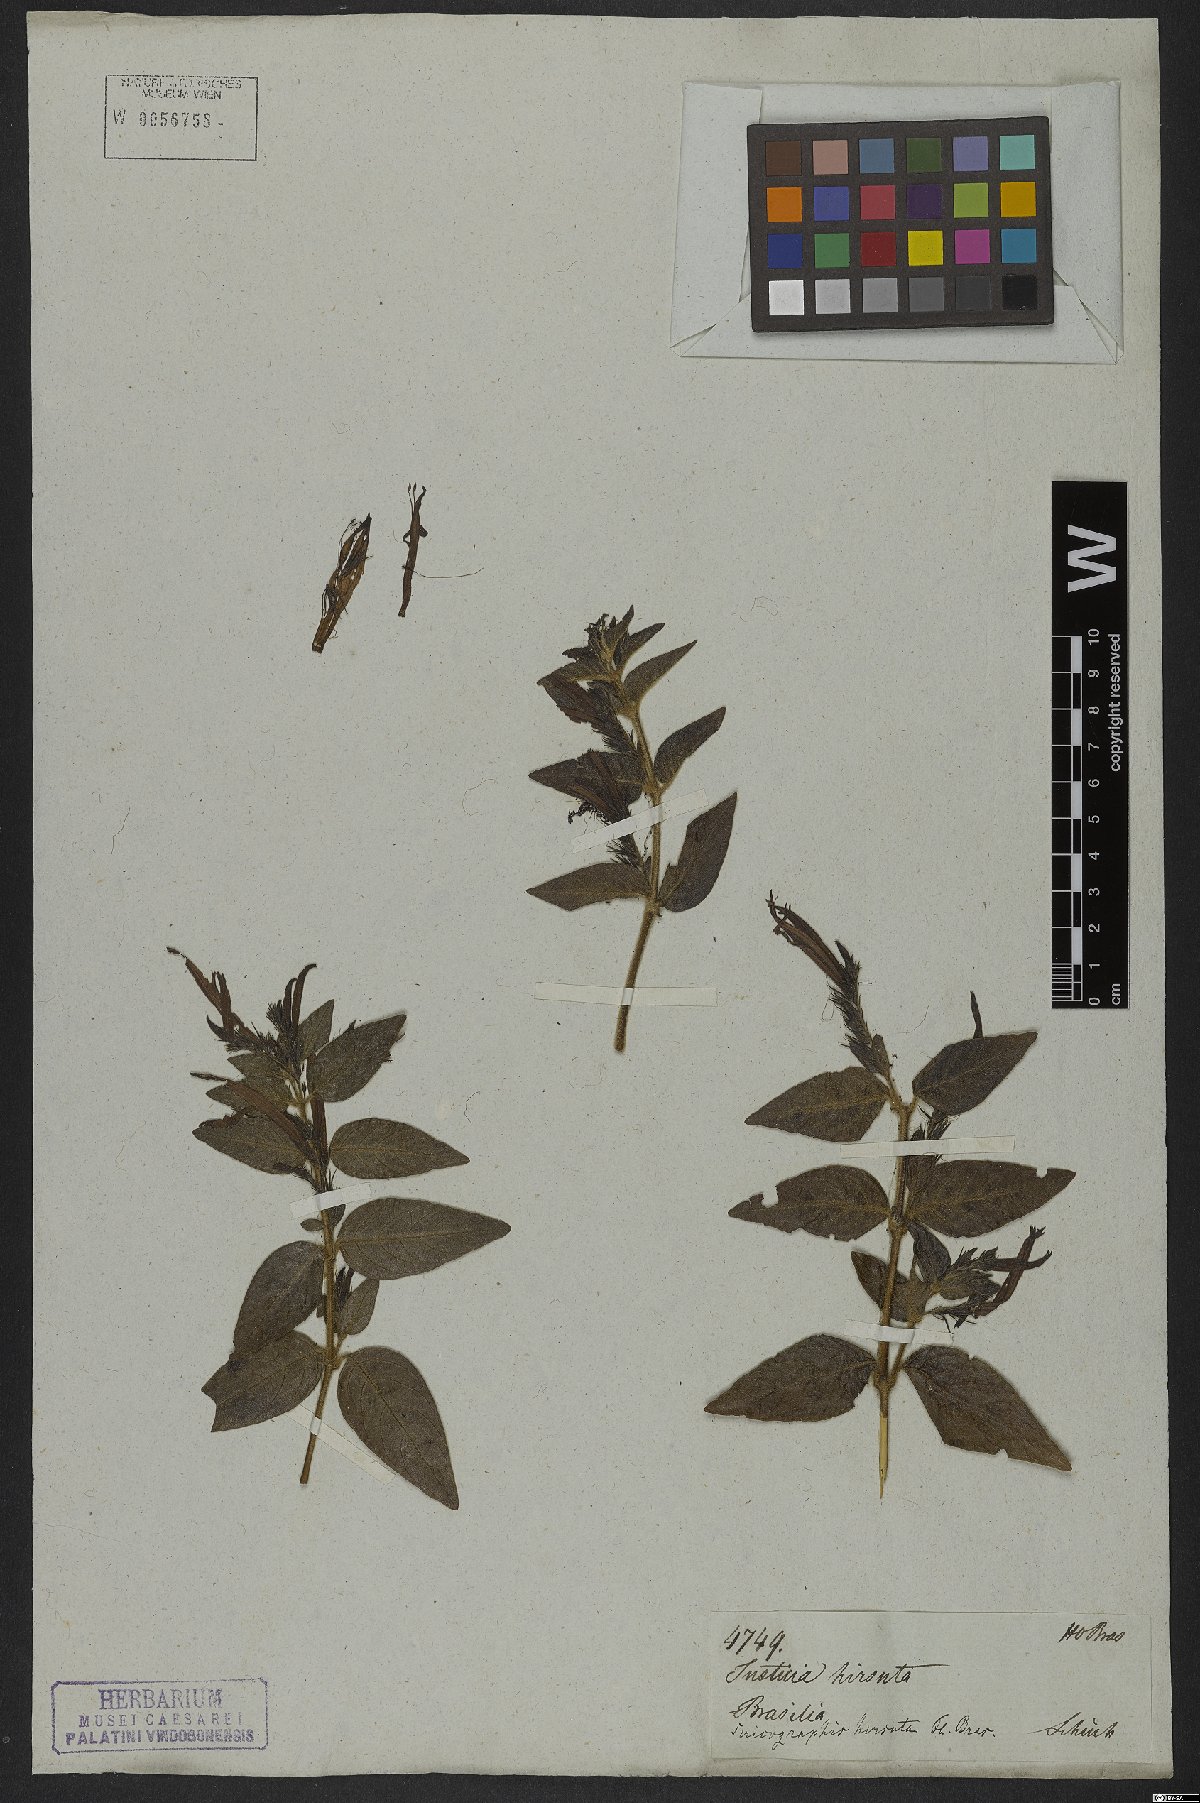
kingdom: Plantae
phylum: Tracheophyta
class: Magnoliopsida
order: Gentianales
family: Rubiaceae
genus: Gonzalagunia
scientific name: Gonzalagunia hirsuta
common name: Mata de mariposa
